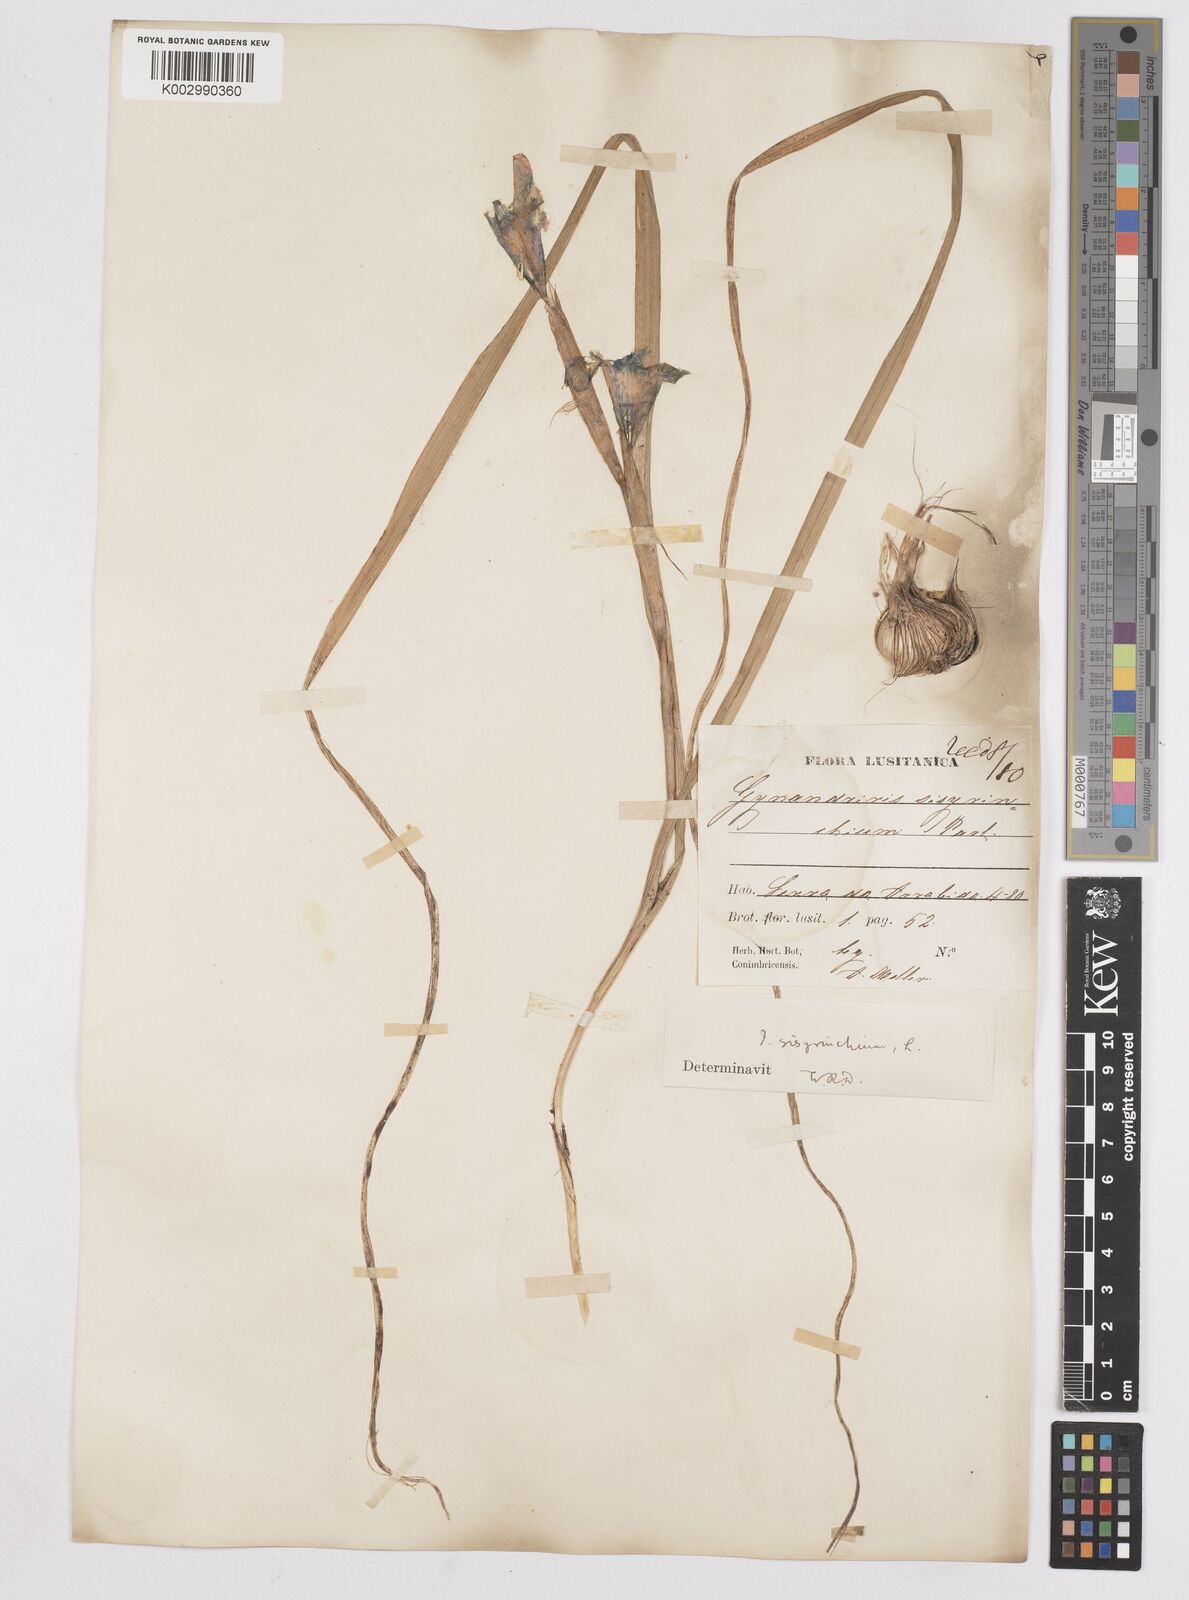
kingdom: Plantae
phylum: Tracheophyta
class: Liliopsida
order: Asparagales
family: Iridaceae
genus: Moraea
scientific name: Moraea sisyrinchium
